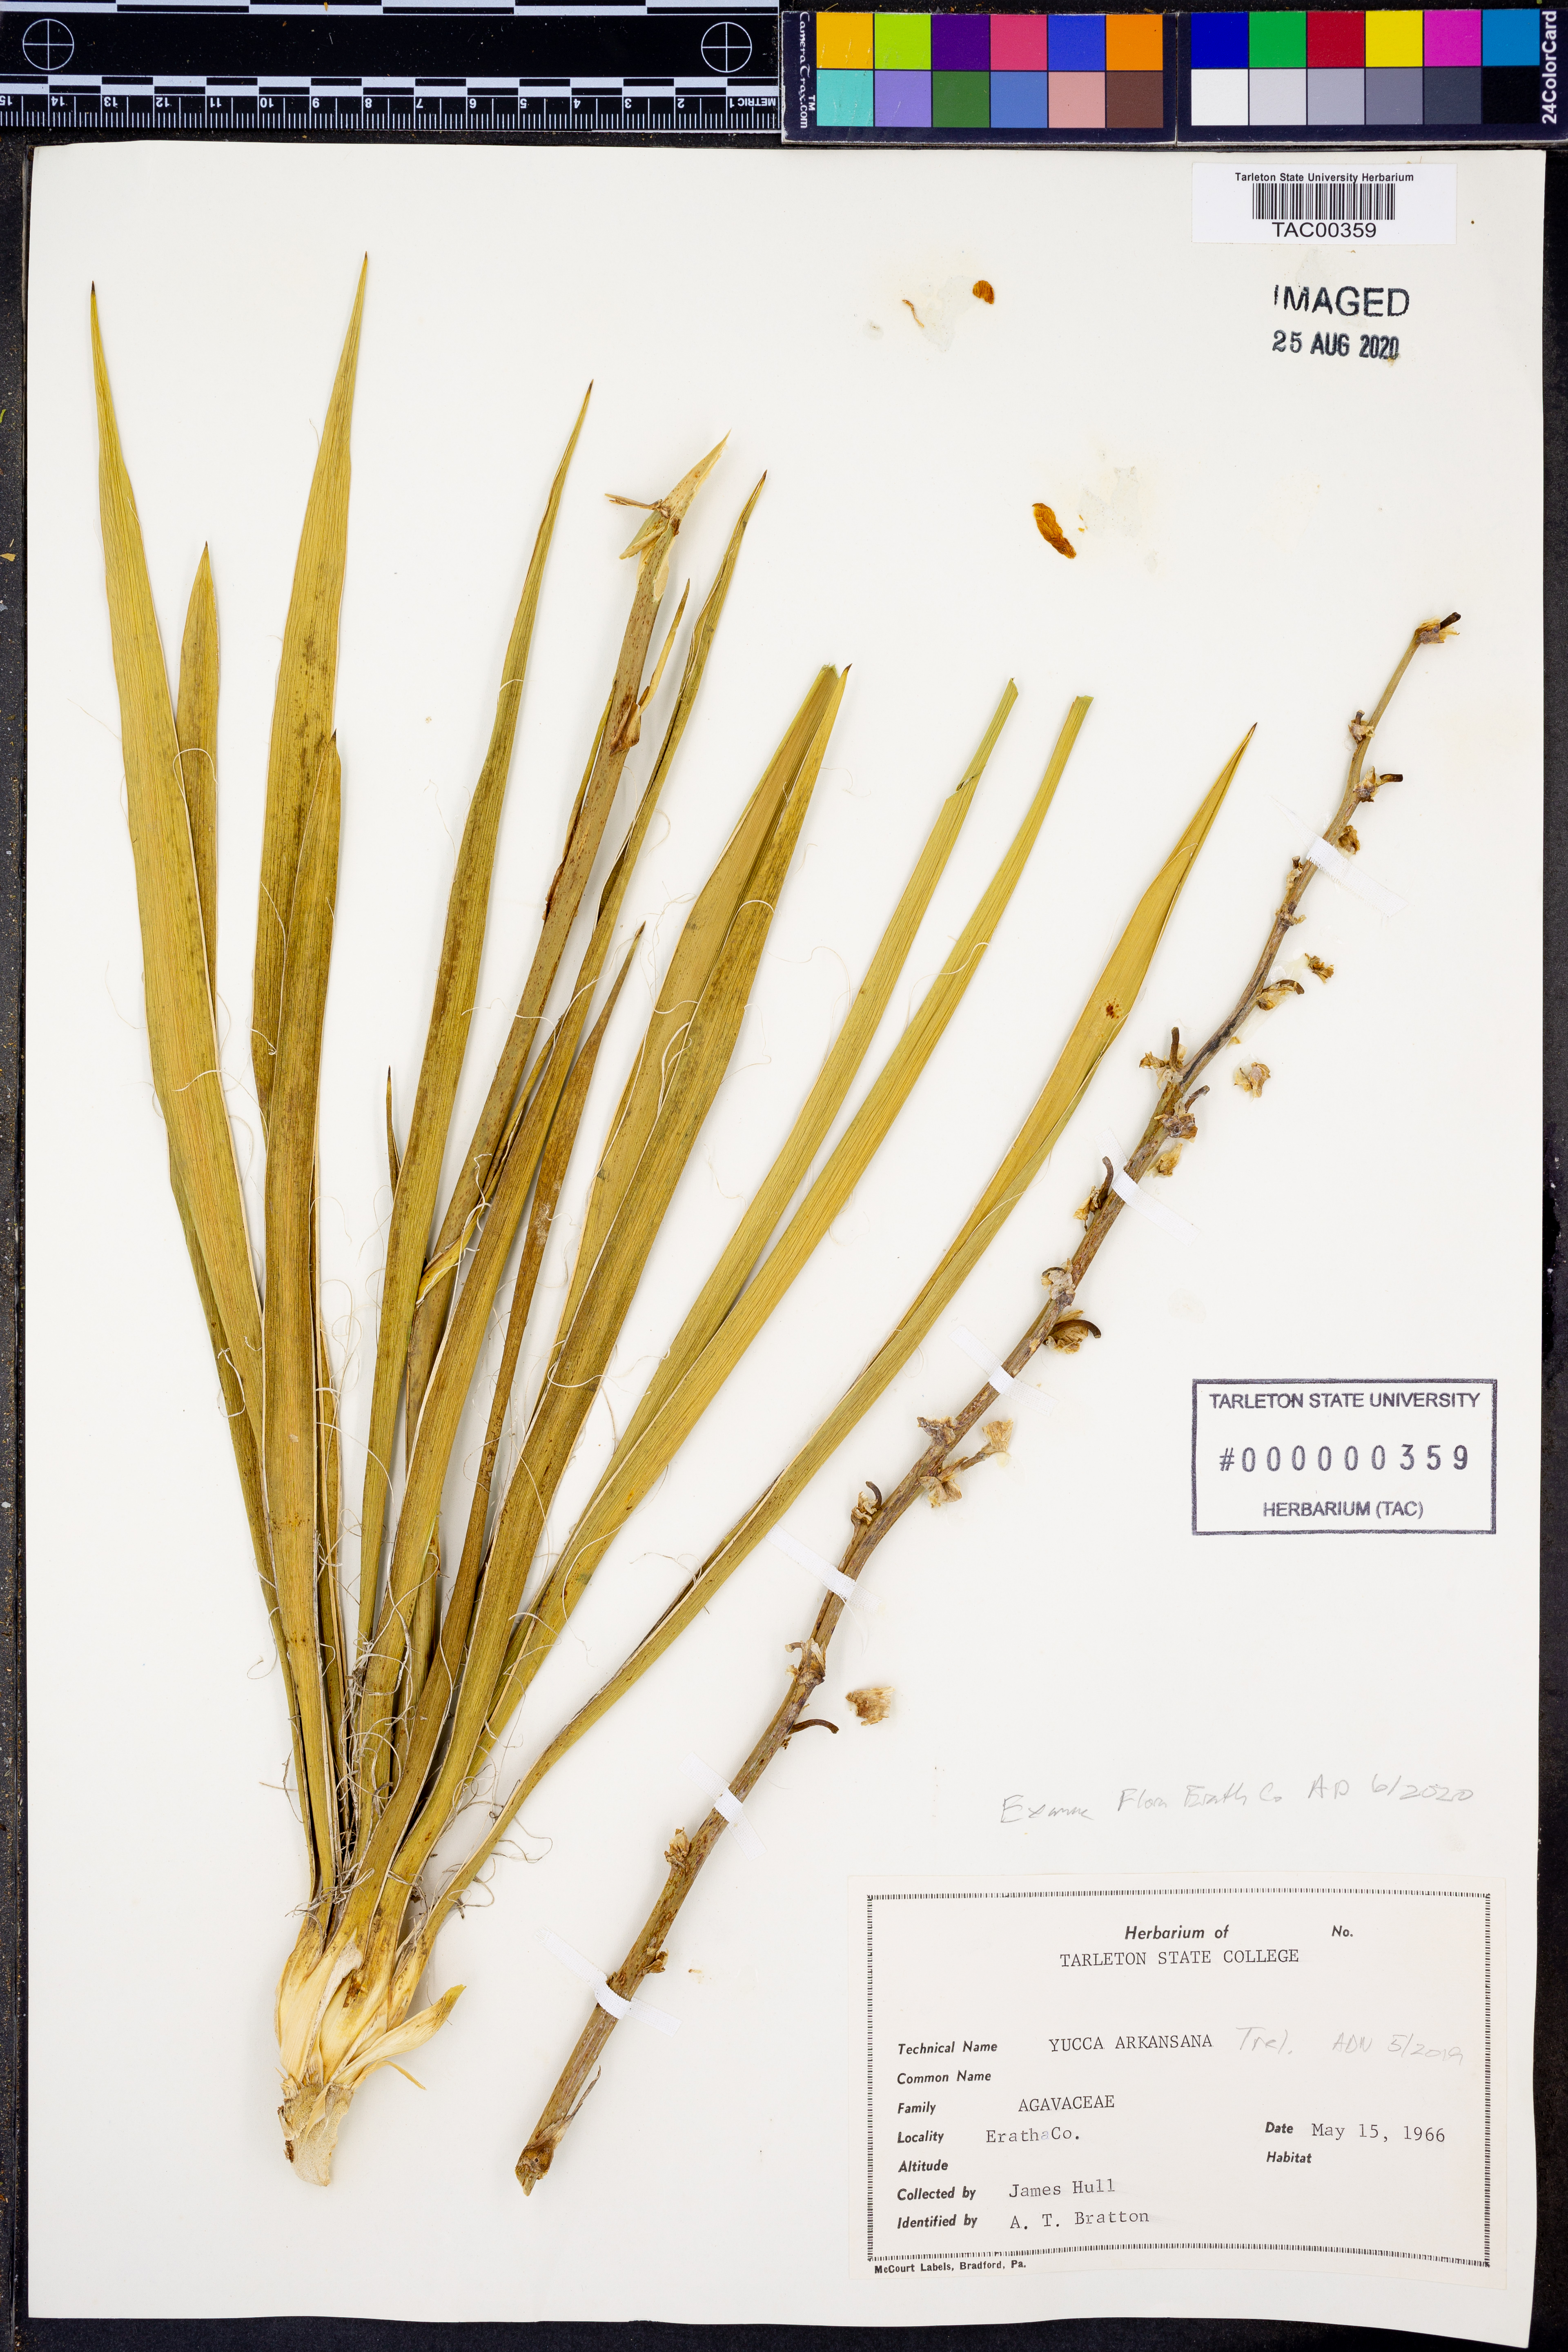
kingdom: Plantae
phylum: Tracheophyta
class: Liliopsida
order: Asparagales
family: Asparagaceae
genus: Yucca
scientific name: Yucca arkansana
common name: Arkansas yucca
